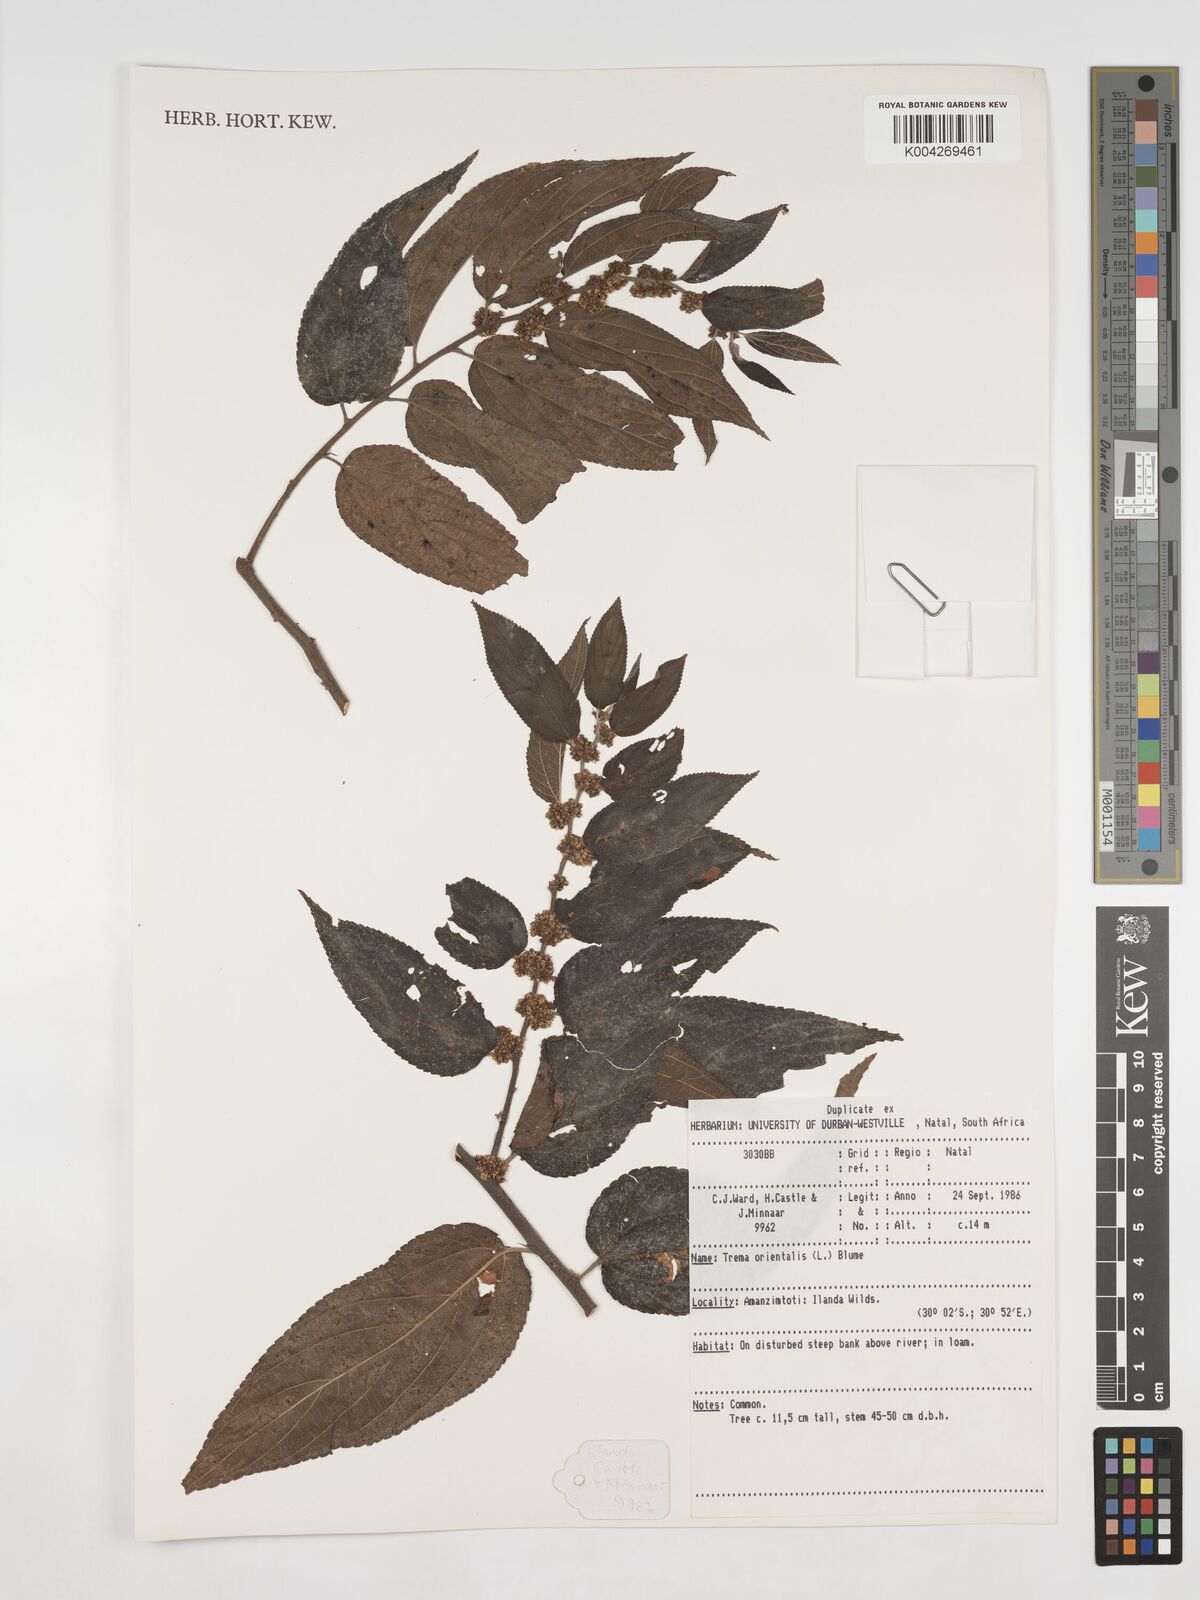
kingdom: Plantae
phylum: Tracheophyta
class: Magnoliopsida
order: Rosales
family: Cannabaceae
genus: Trema
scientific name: Trema orientale
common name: Indian charcoal tree
